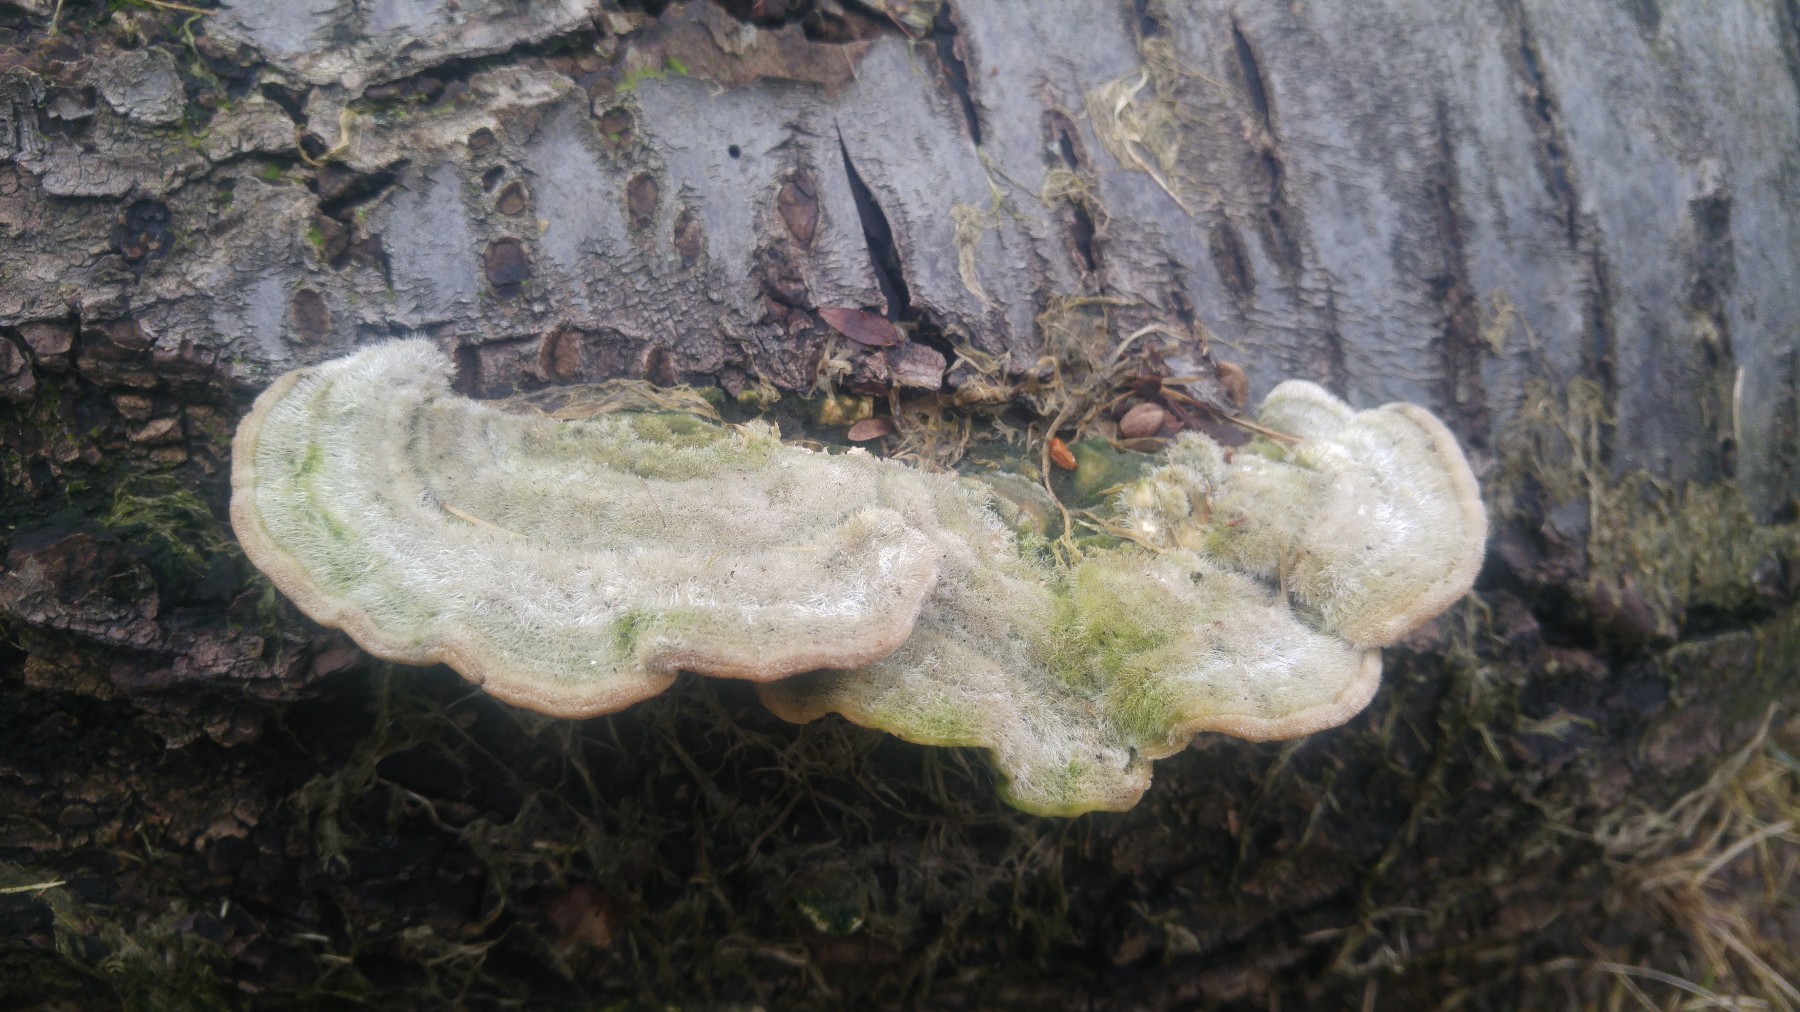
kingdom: Fungi
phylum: Basidiomycota
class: Agaricomycetes
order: Polyporales
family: Polyporaceae
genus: Trametes
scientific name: Trametes hirsuta
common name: håret læderporesvamp
